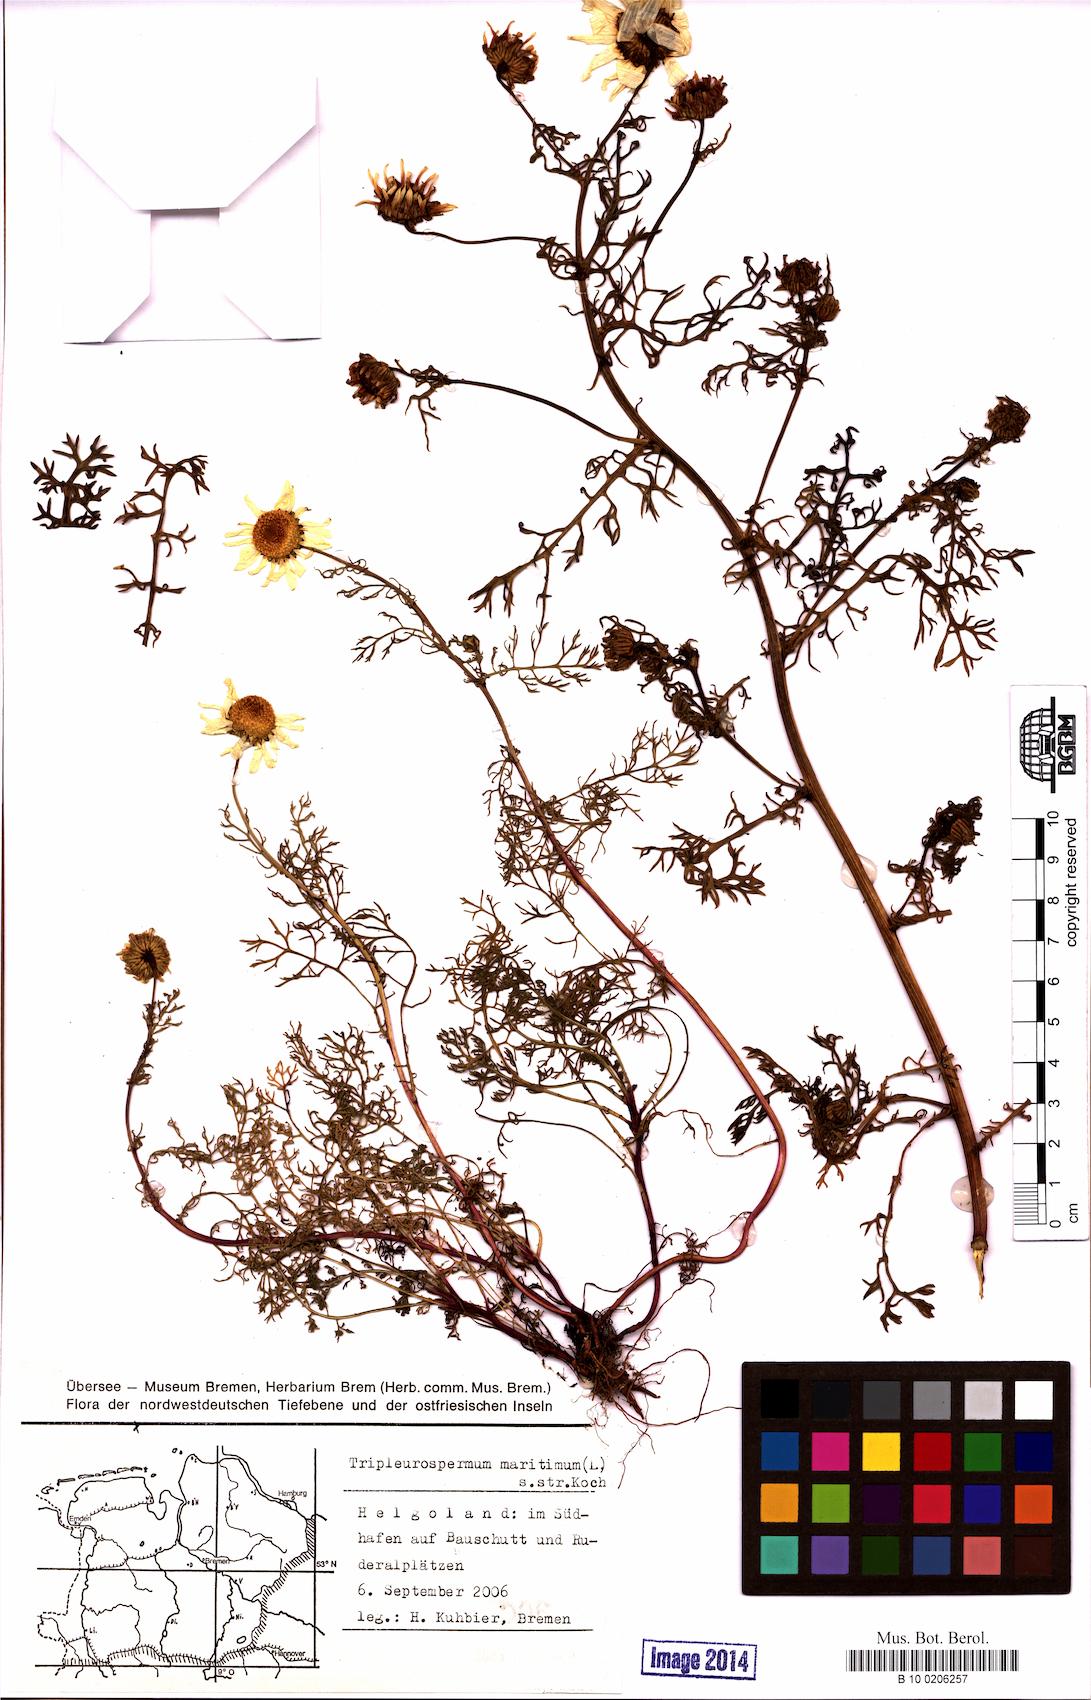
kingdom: Plantae
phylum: Tracheophyta
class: Magnoliopsida
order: Asterales
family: Asteraceae
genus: Tripleurospermum
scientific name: Tripleurospermum maritimum
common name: Sea mayweed
